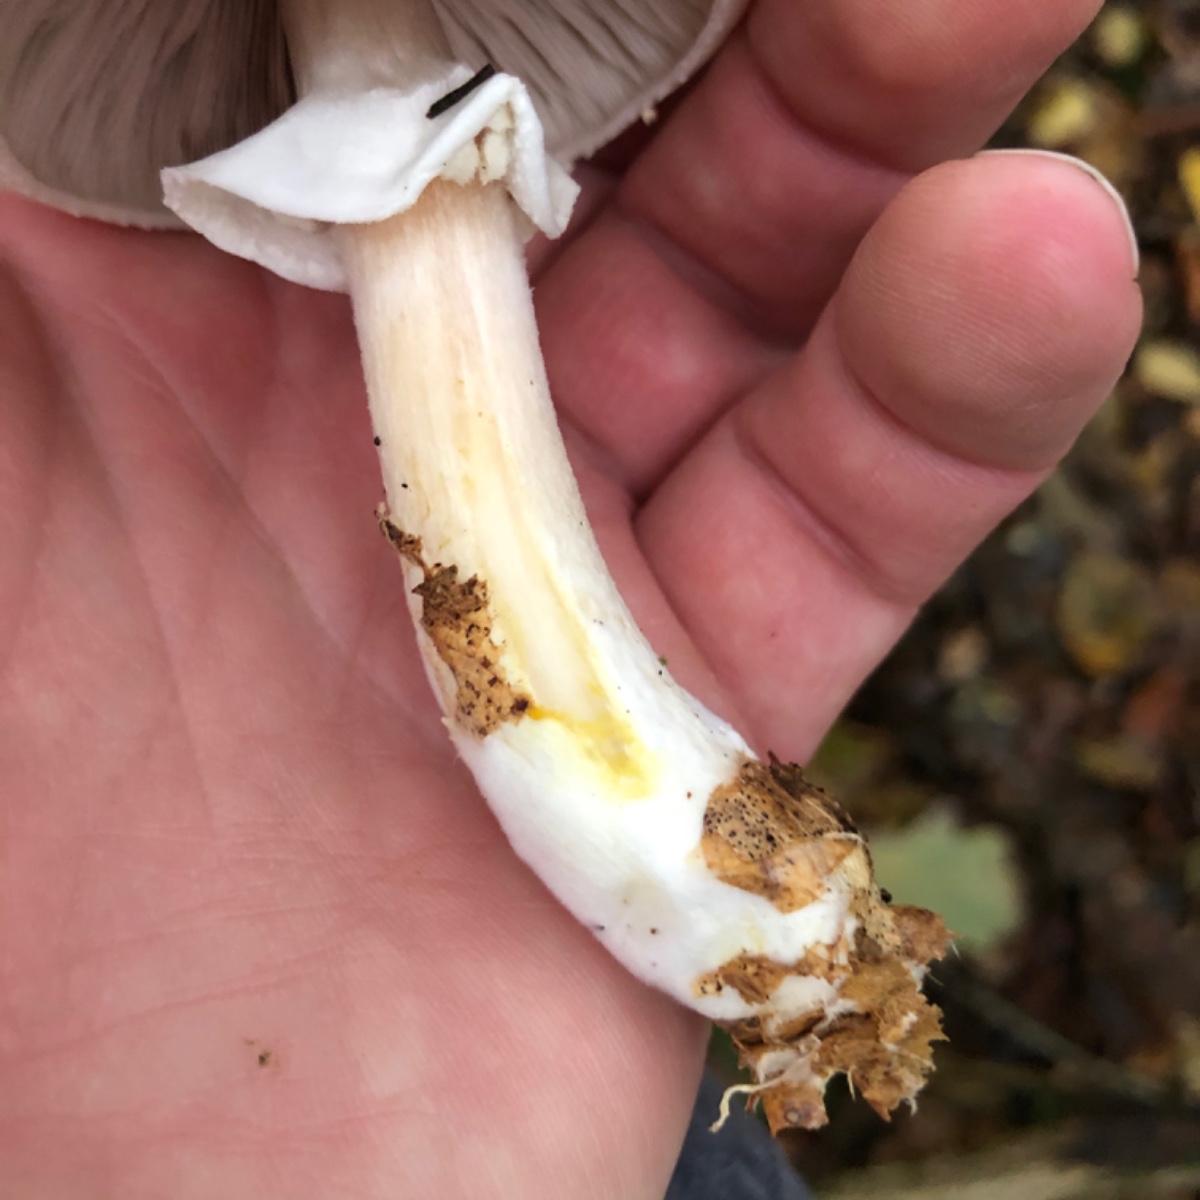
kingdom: Fungi
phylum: Basidiomycota
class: Agaricomycetes
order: Agaricales
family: Agaricaceae
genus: Agaricus
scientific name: Agaricus sylvicola
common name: gulhvid champignon
